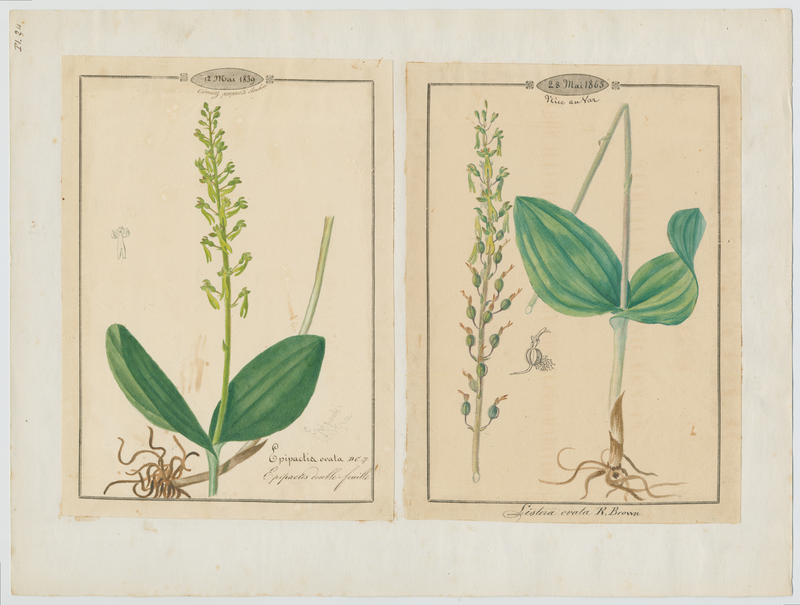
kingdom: Plantae
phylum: Tracheophyta
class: Liliopsida
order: Asparagales
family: Orchidaceae
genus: Neottia
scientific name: Neottia ovata
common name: Common twayblade
